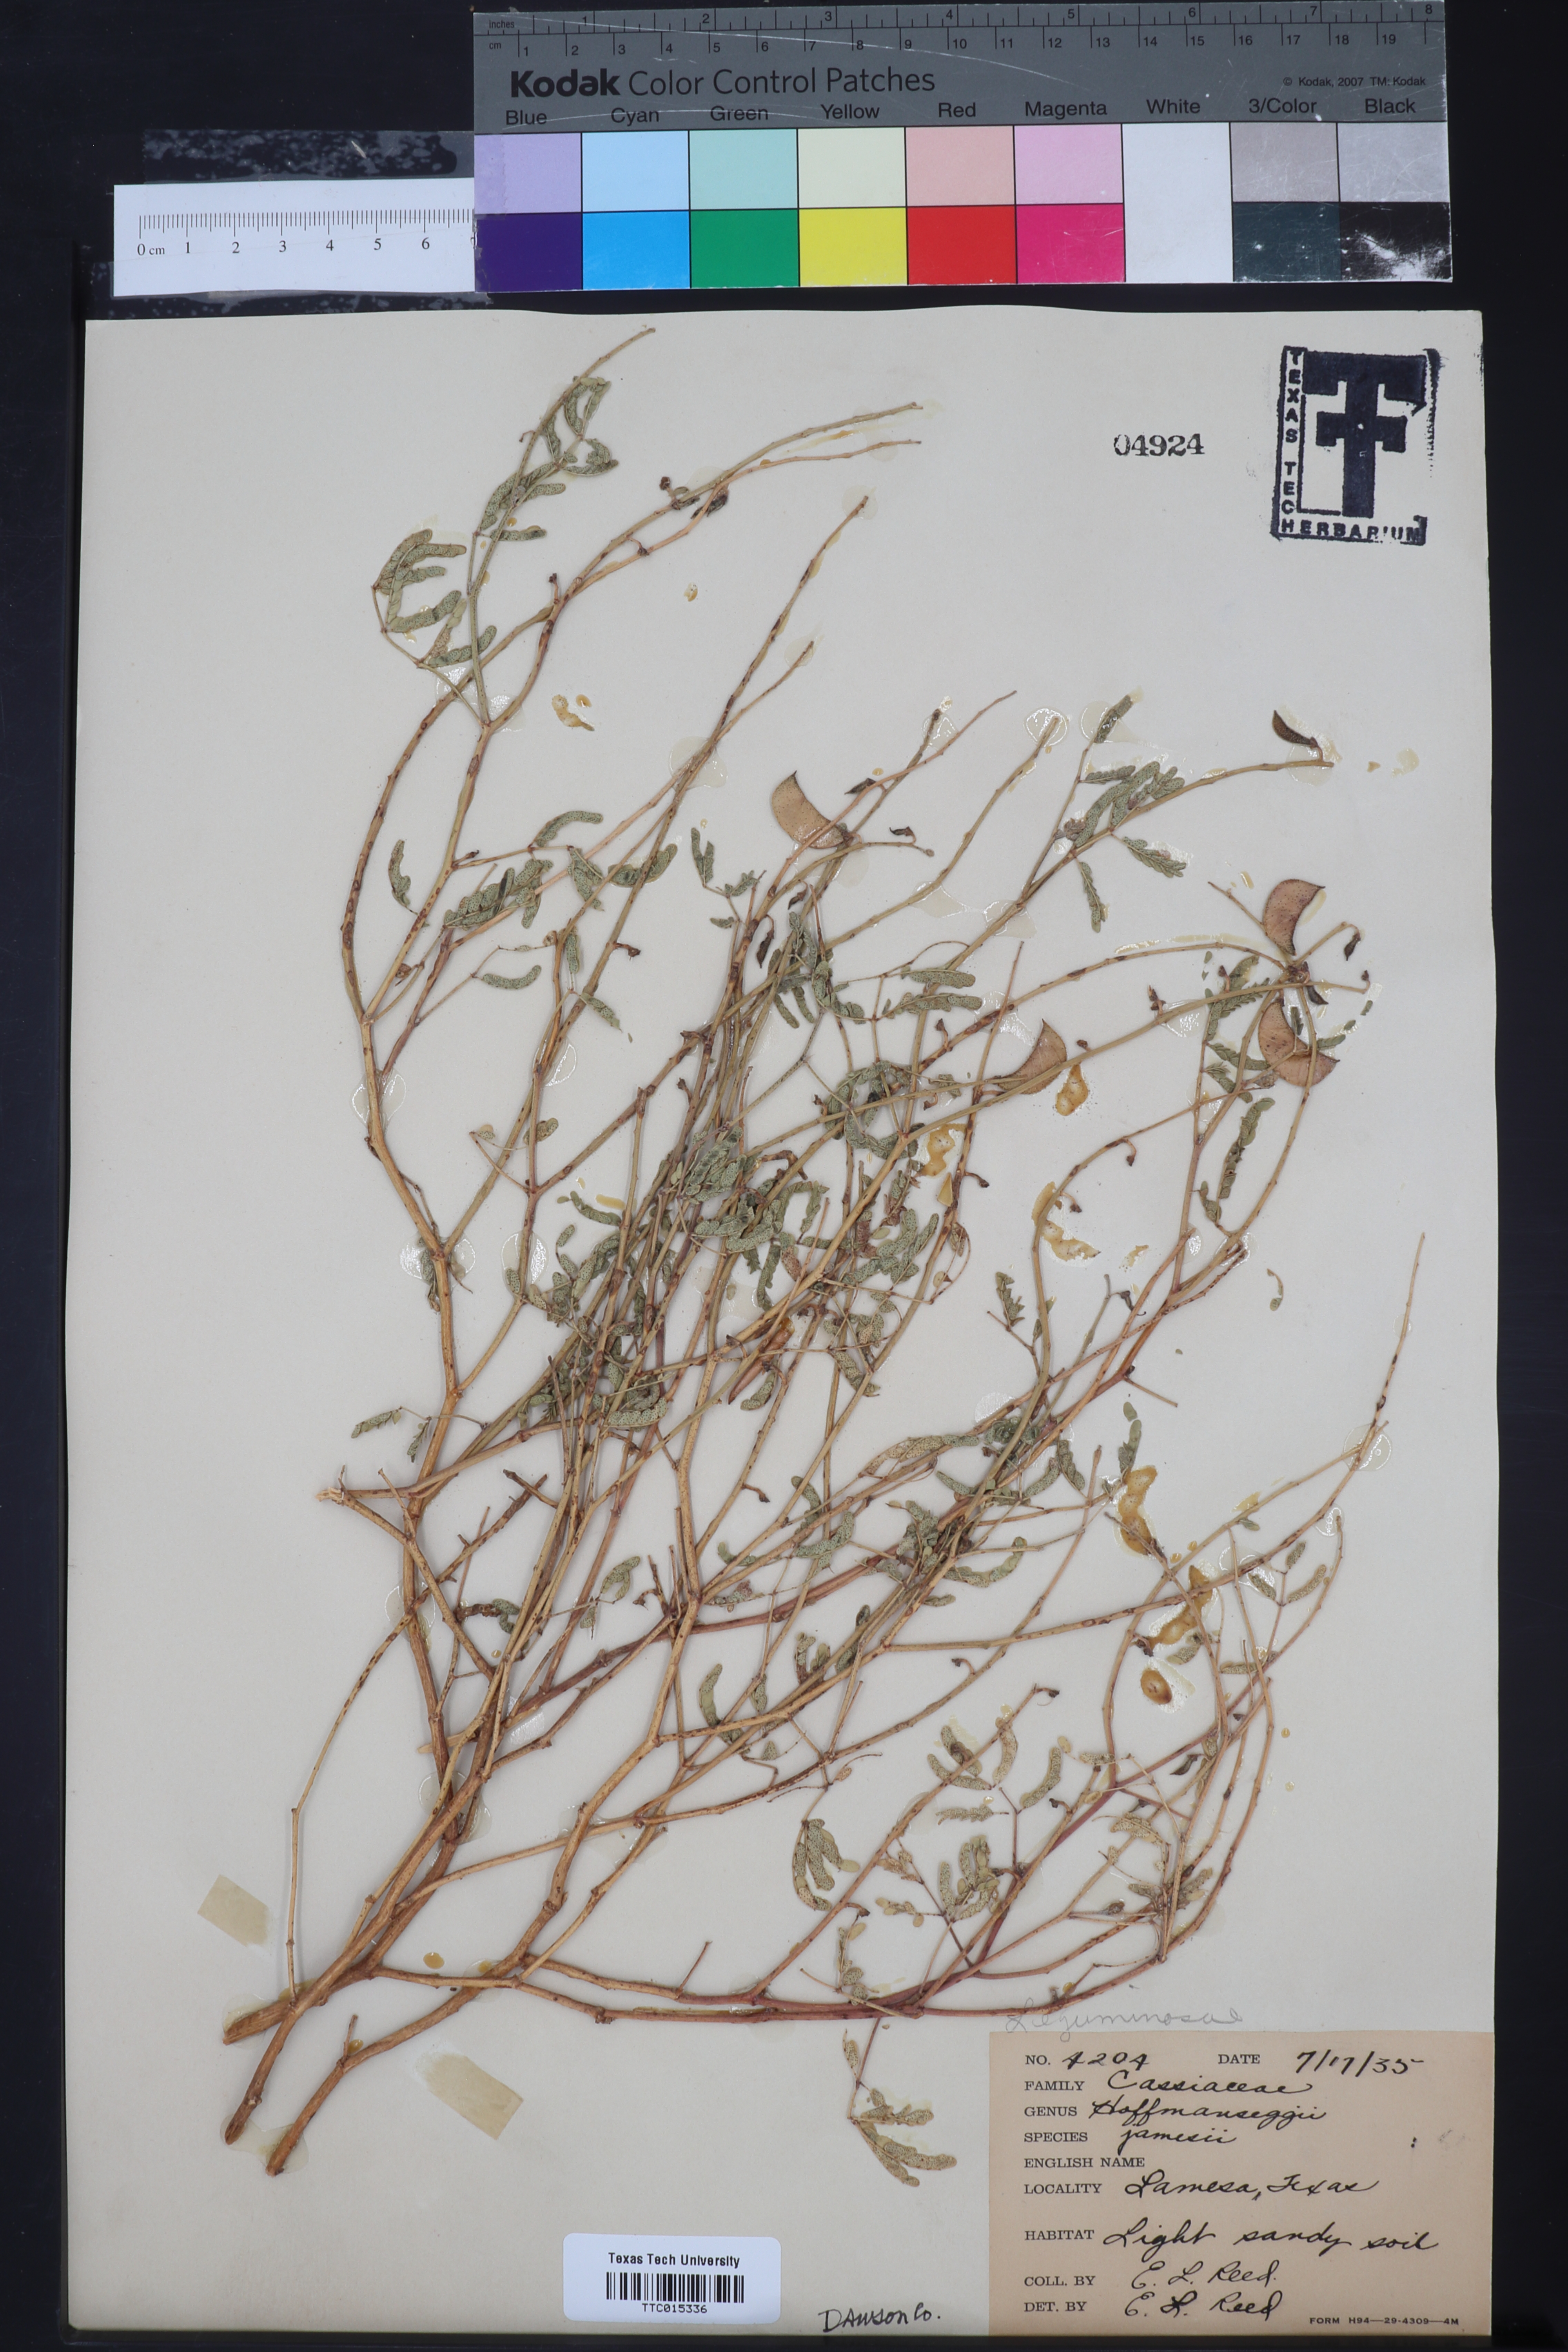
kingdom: Plantae
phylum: Tracheophyta
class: Magnoliopsida
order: Fabales
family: Fabaceae
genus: Pomaria
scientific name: Pomaria jamesii
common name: James' caesalpinia
